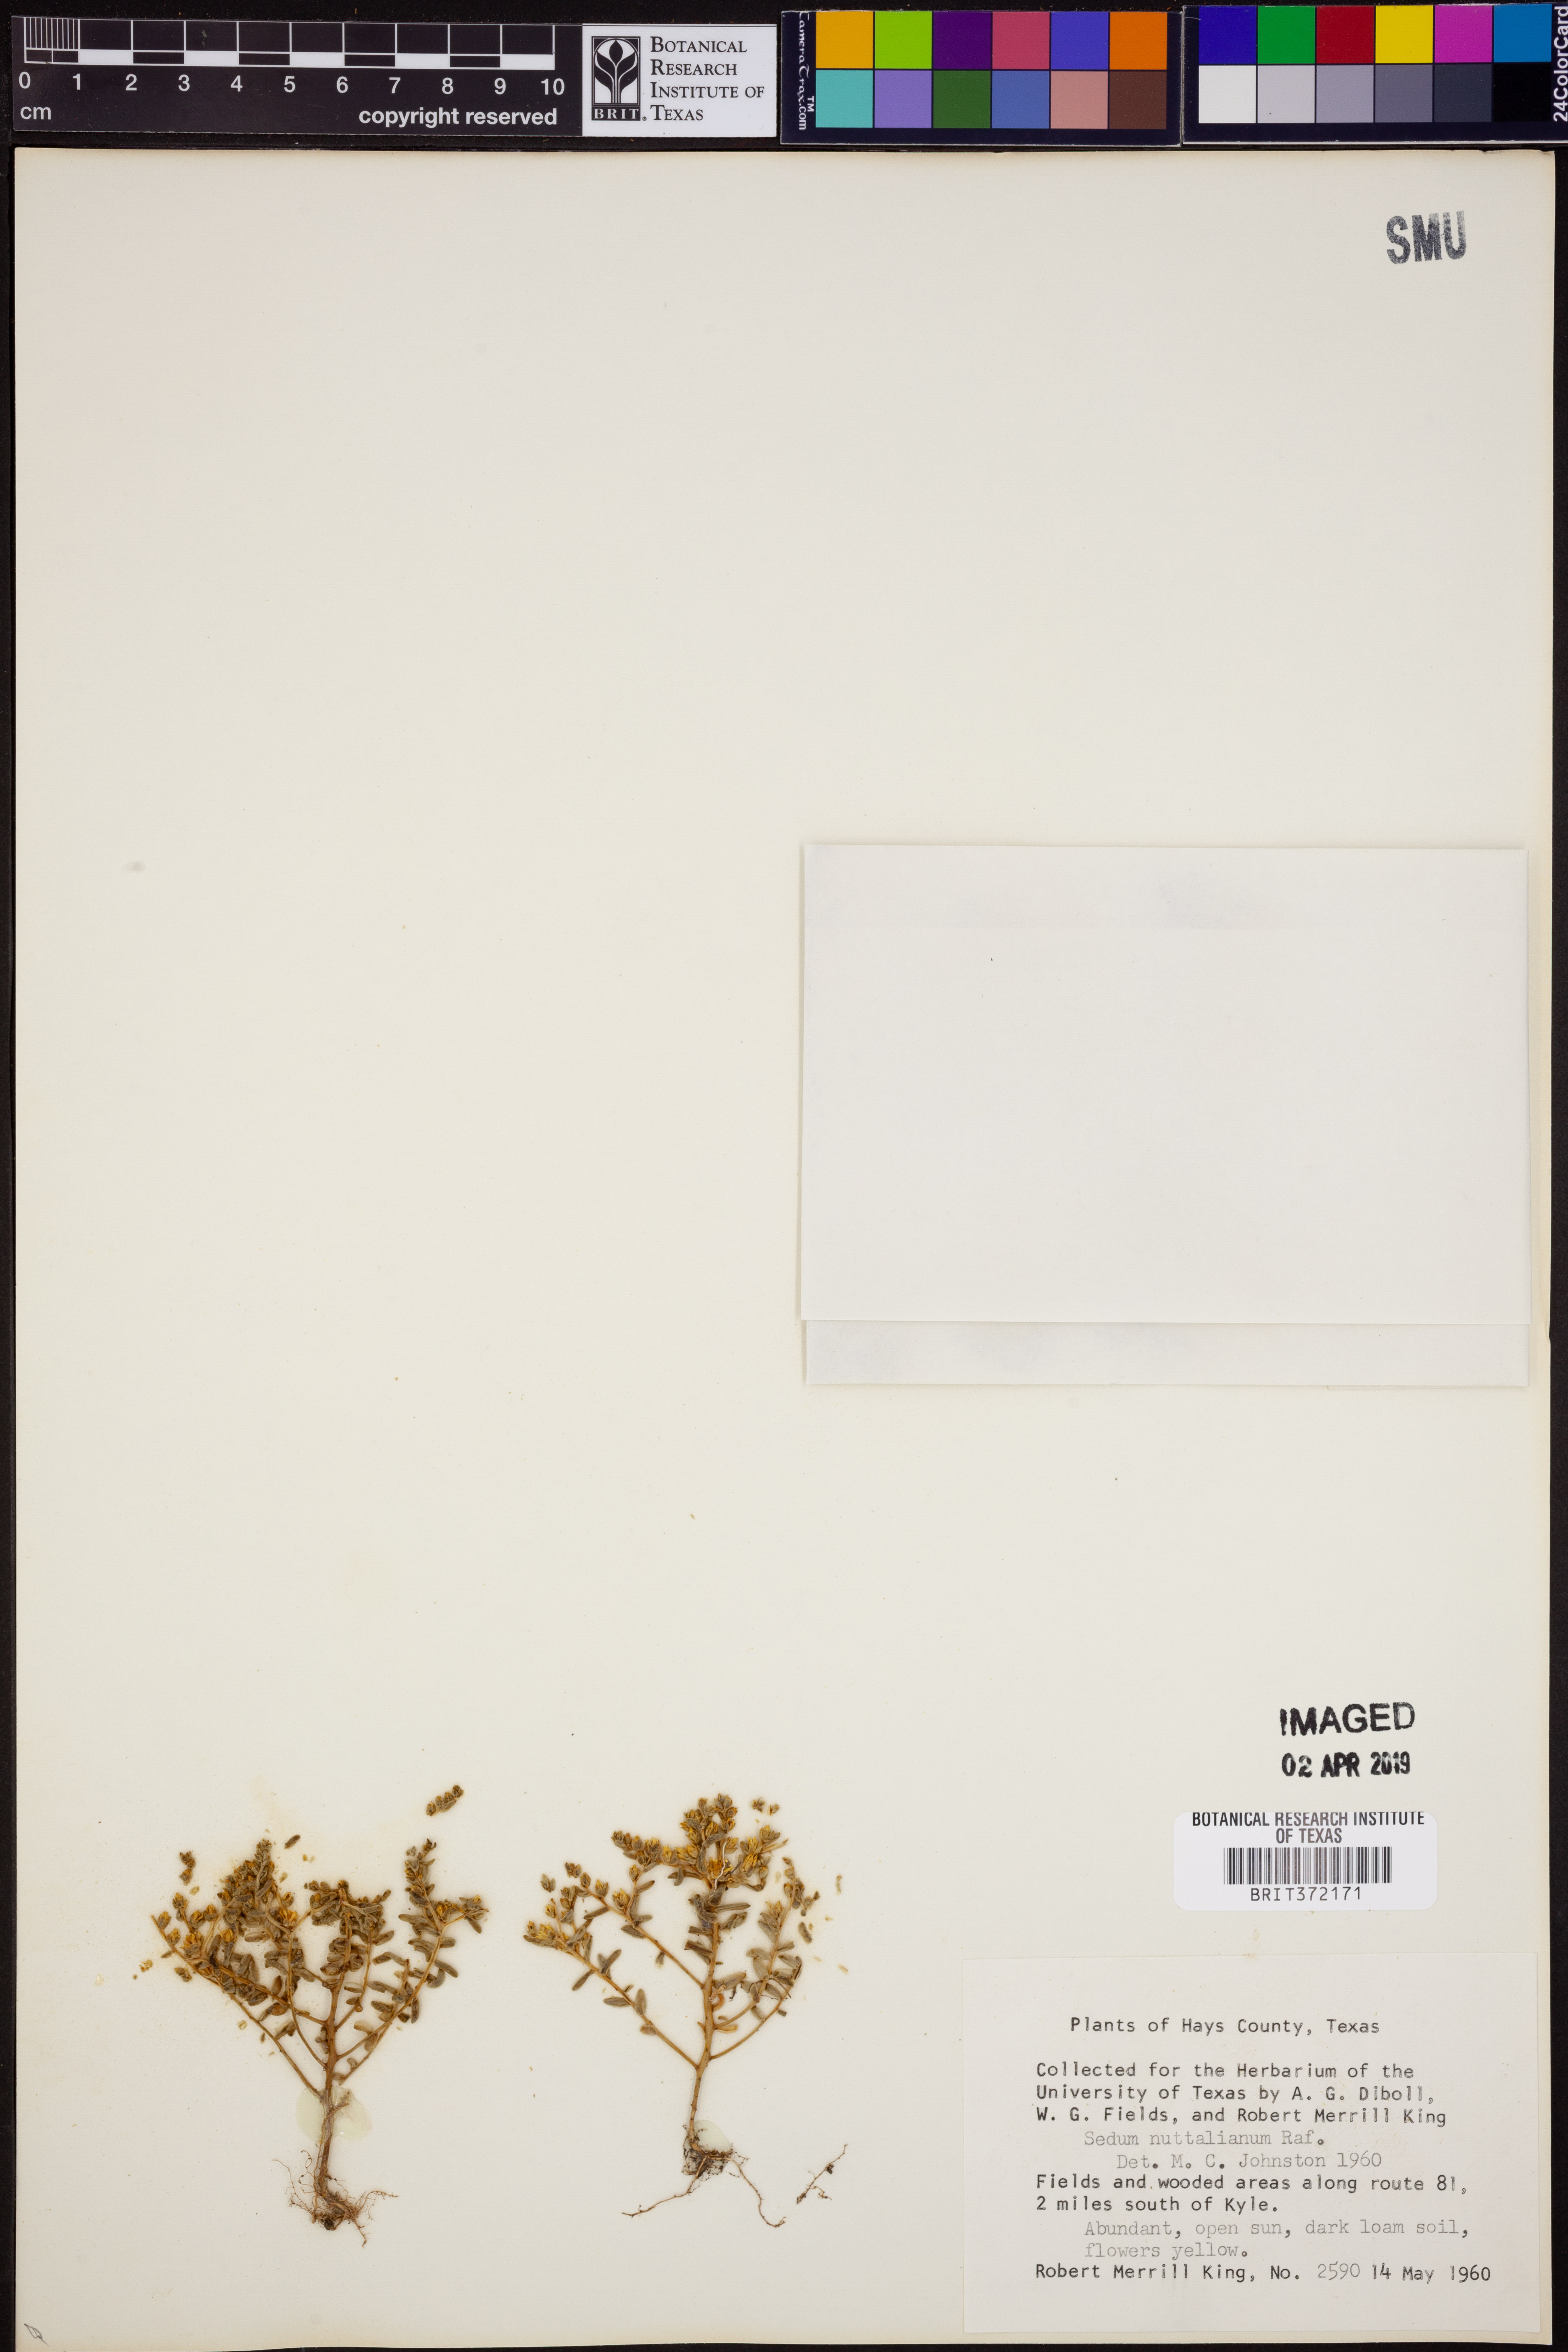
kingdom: Plantae
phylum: Tracheophyta
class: Magnoliopsida
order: Saxifragales
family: Crassulaceae
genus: Sedum
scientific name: Sedum nuttallii
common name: Yellow stonecrop
